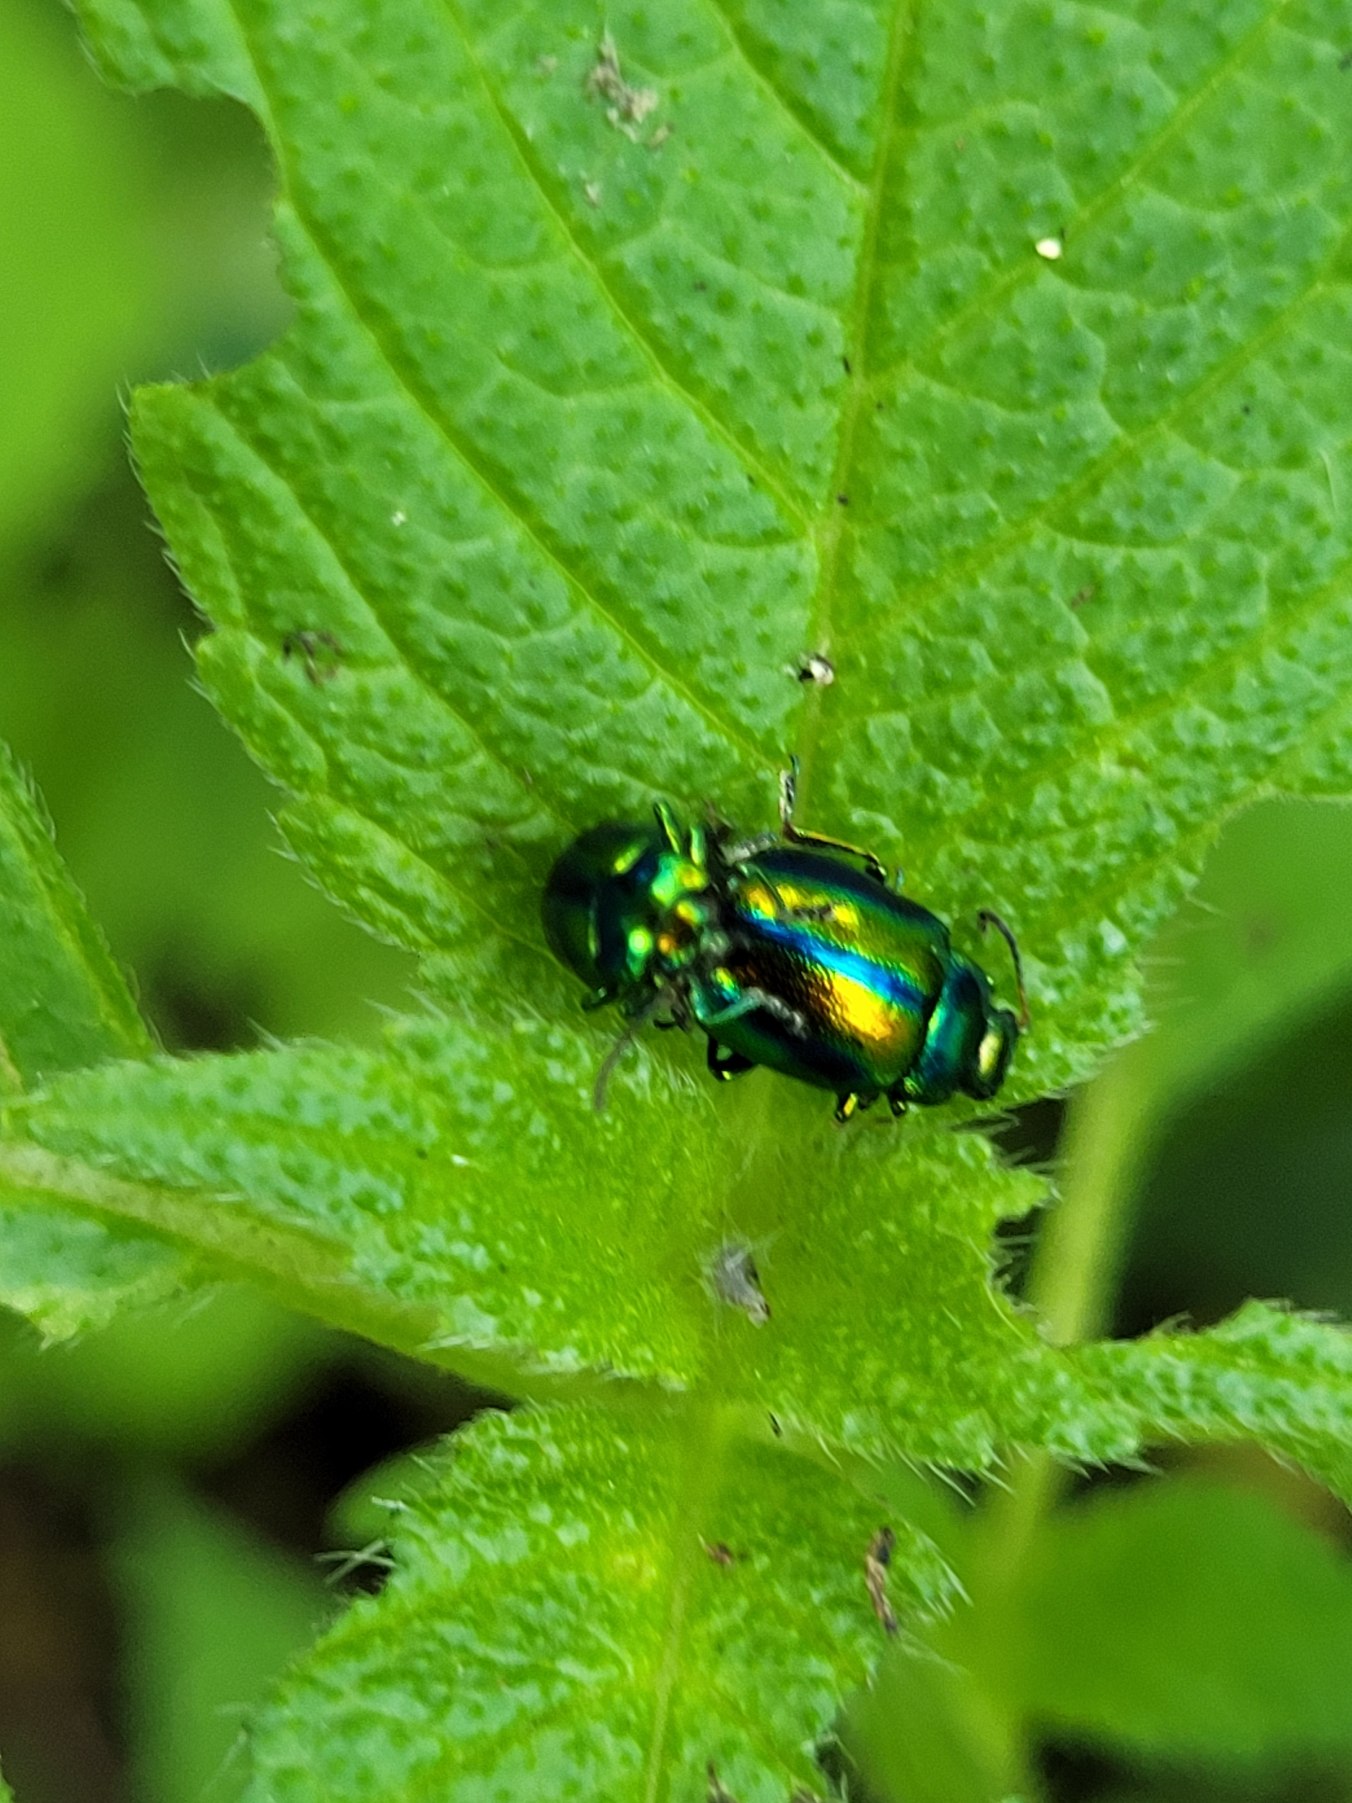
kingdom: Animalia
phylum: Arthropoda
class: Insecta
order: Coleoptera
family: Chrysomelidae
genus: Chrysolina
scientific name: Chrysolina fastuosa
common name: Tvetandbladbille
